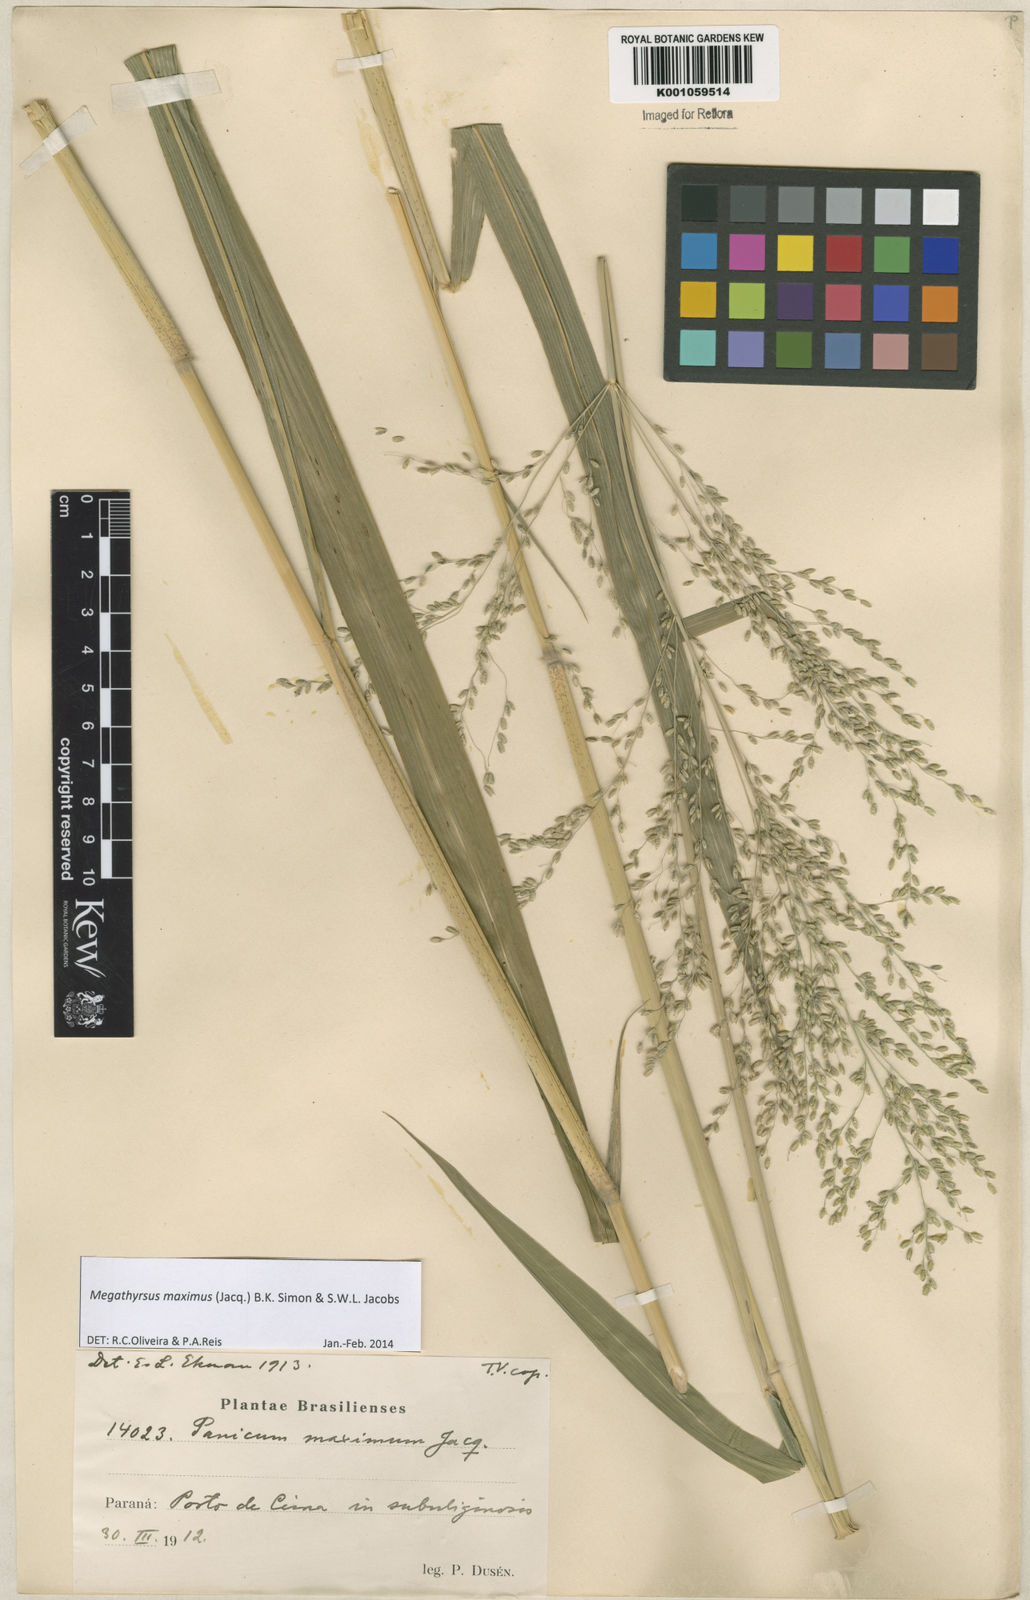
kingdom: Plantae
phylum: Tracheophyta
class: Liliopsida
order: Poales
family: Poaceae
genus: Megathyrsus
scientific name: Megathyrsus maximus
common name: Guineagrass
